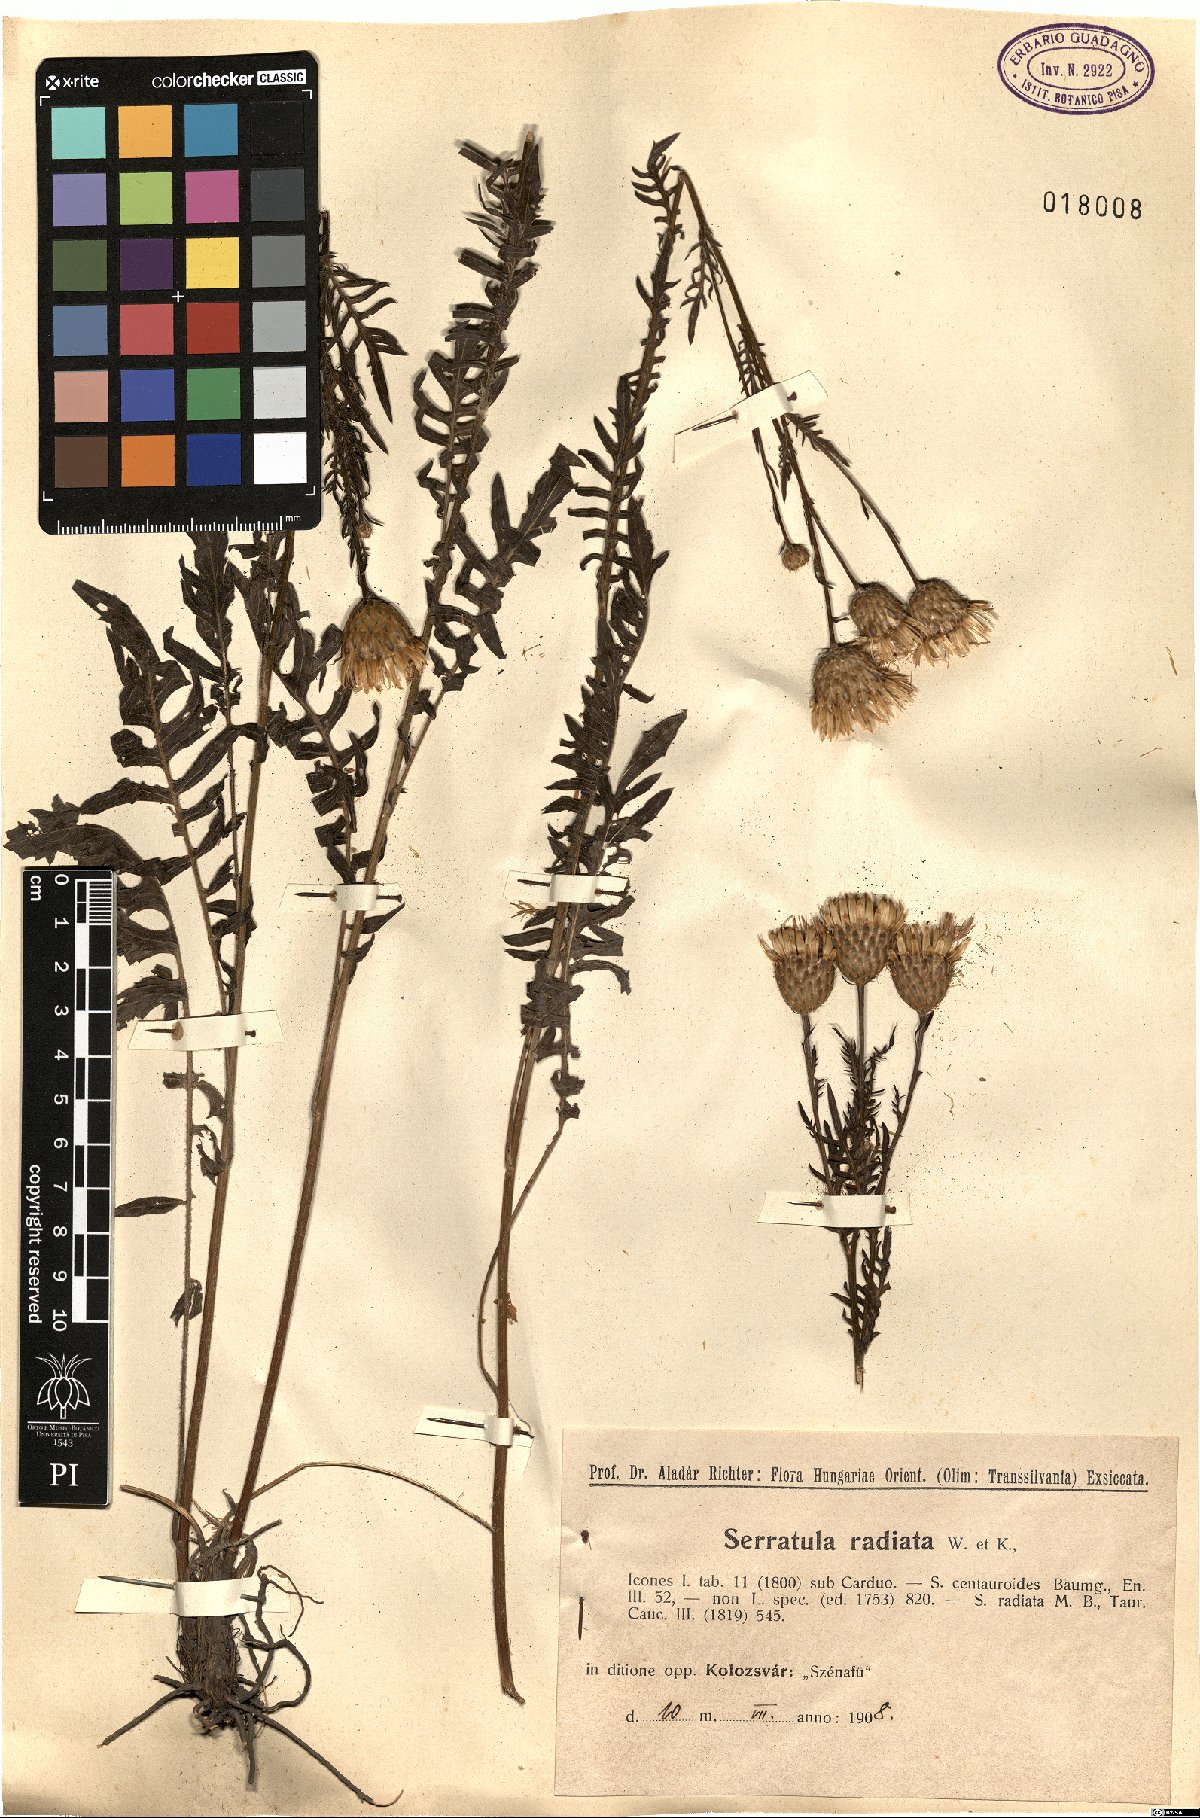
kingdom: Plantae
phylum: Tracheophyta
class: Magnoliopsida
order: Asterales
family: Asteraceae
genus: Klasea
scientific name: Klasea radiata
